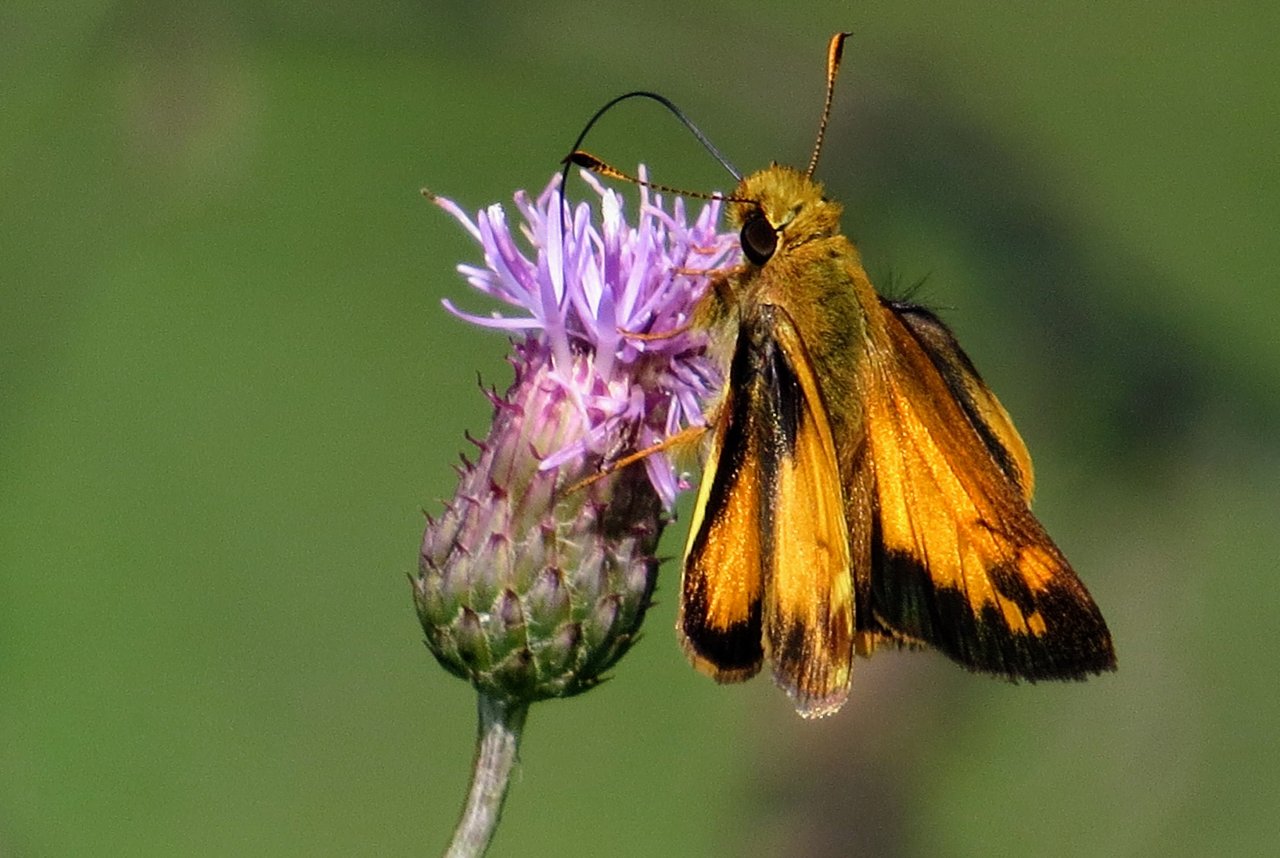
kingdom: Animalia
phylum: Arthropoda
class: Insecta
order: Lepidoptera
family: Hesperiidae
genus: Lon
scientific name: Lon zabulon
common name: Zabulon Skipper
